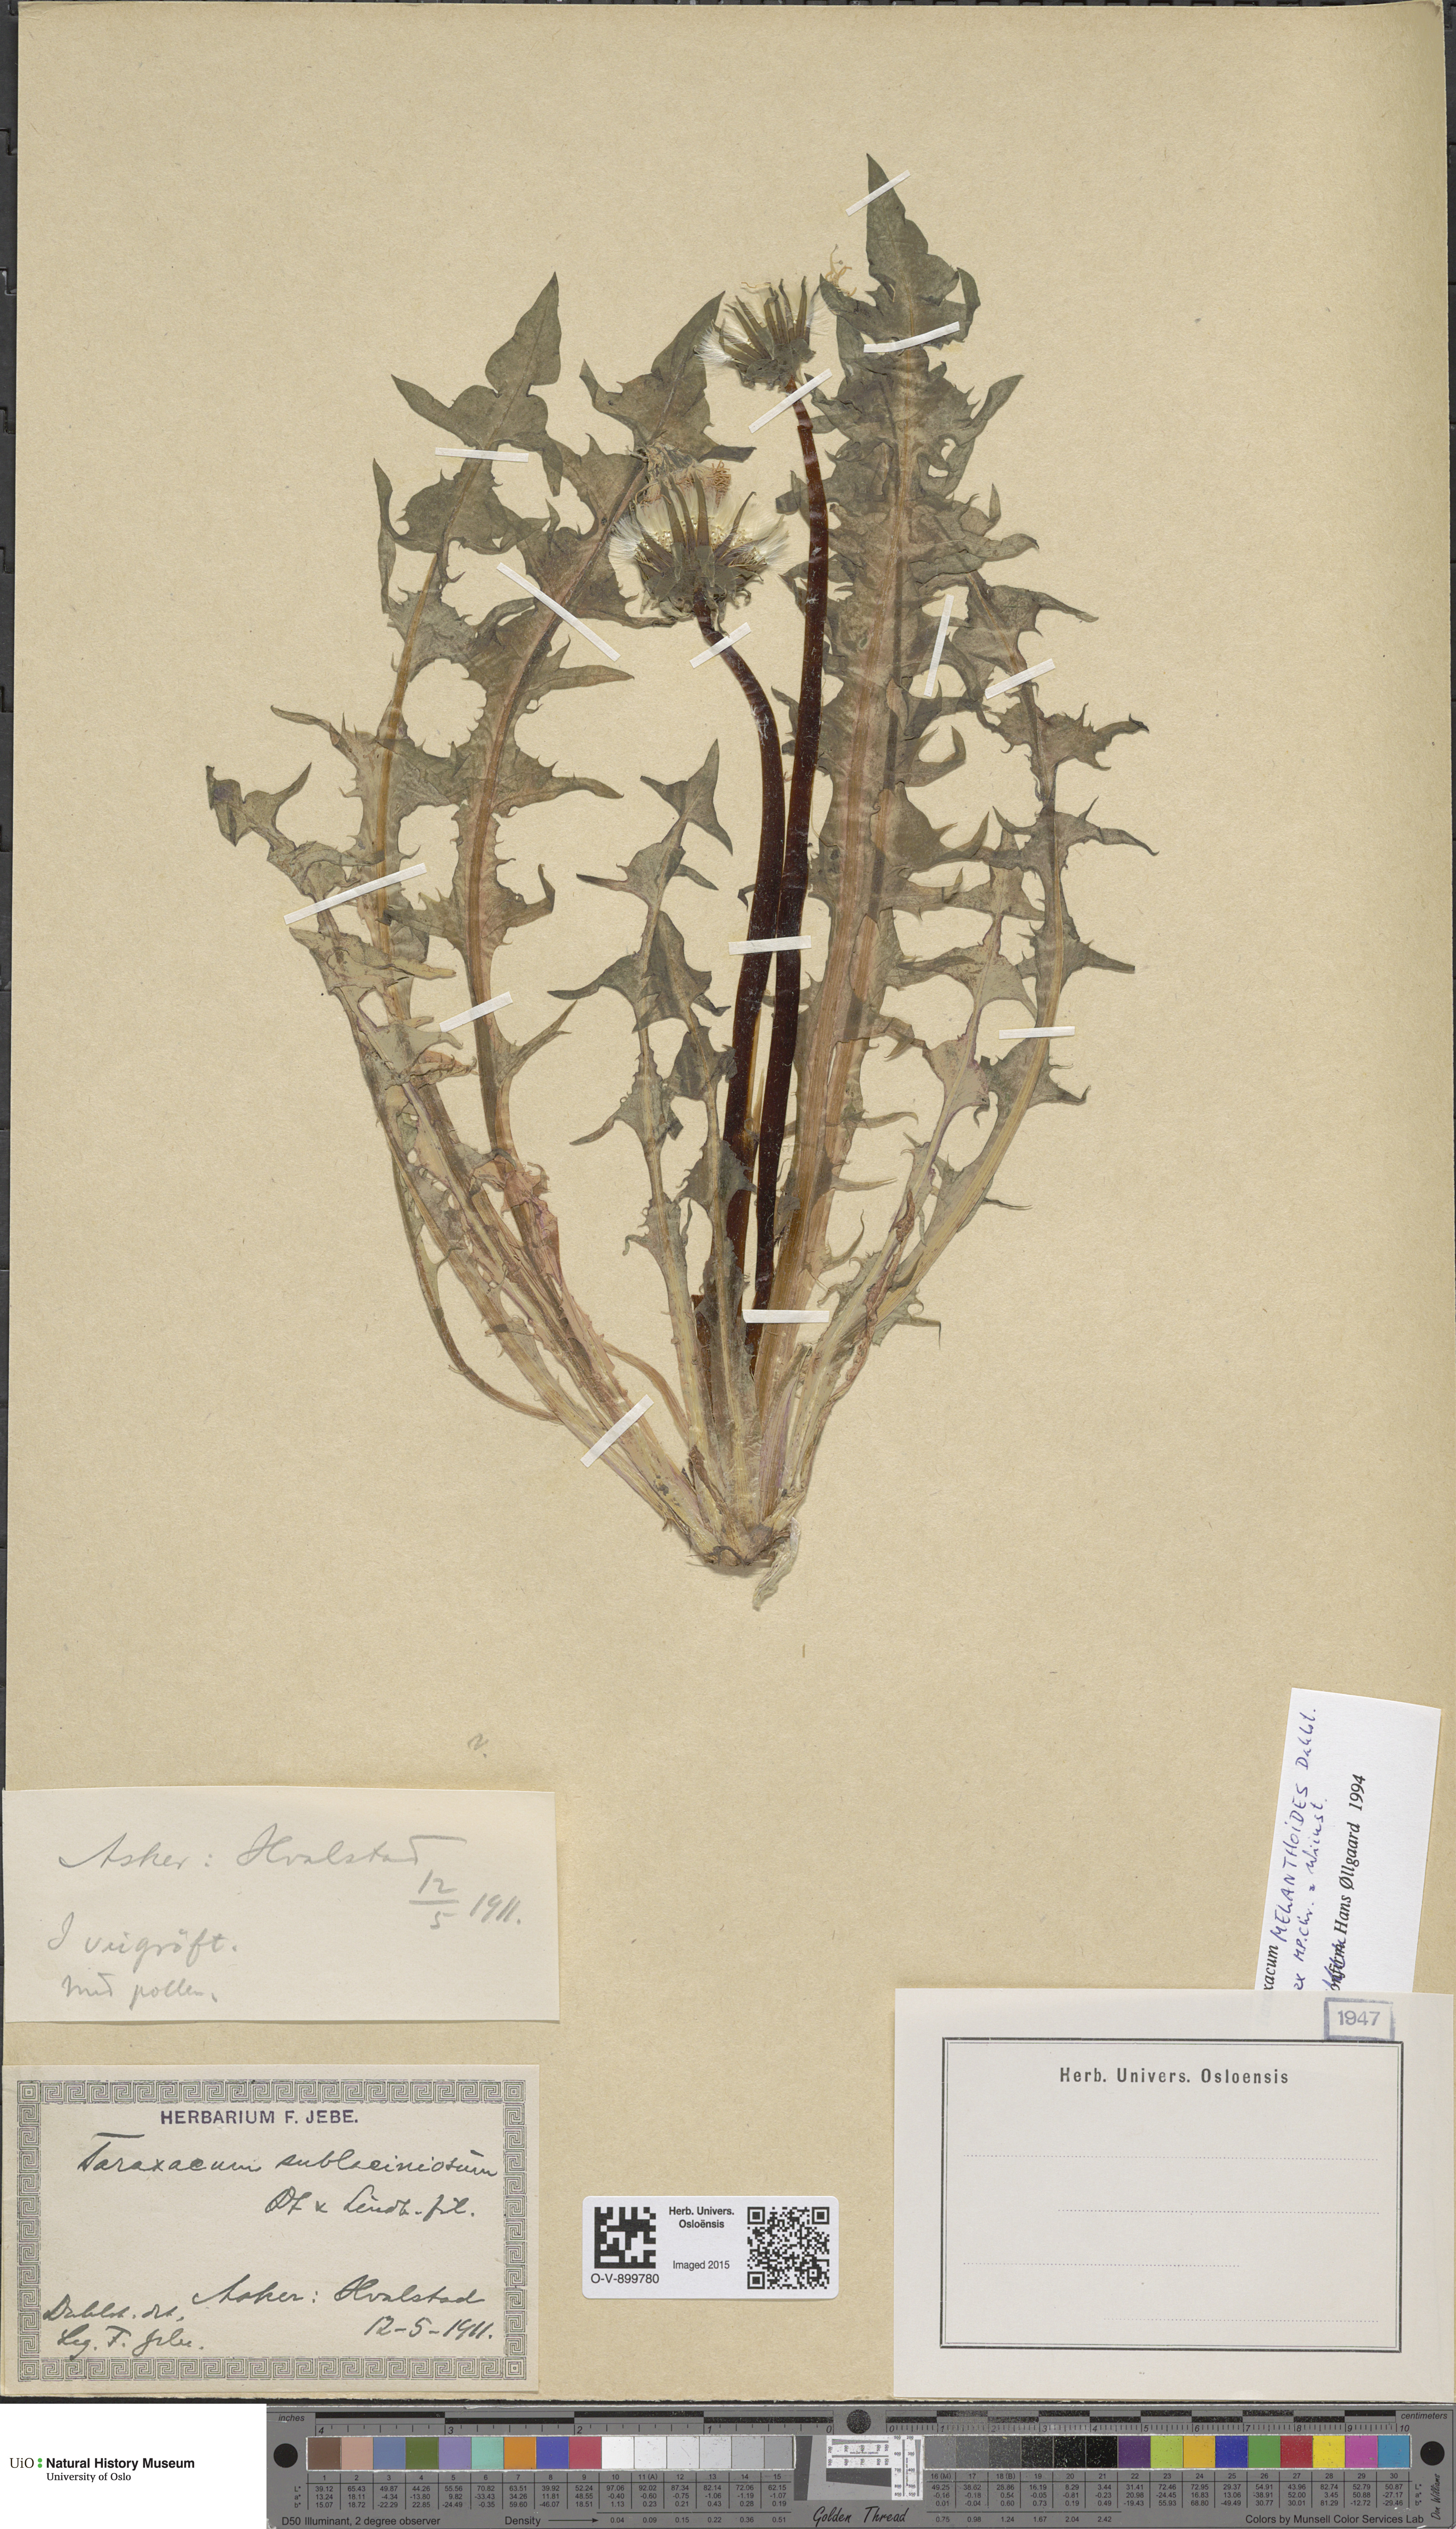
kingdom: Plantae
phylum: Tracheophyta
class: Magnoliopsida
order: Asterales
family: Asteraceae
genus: Taraxacum
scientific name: Taraxacum melanthoides
